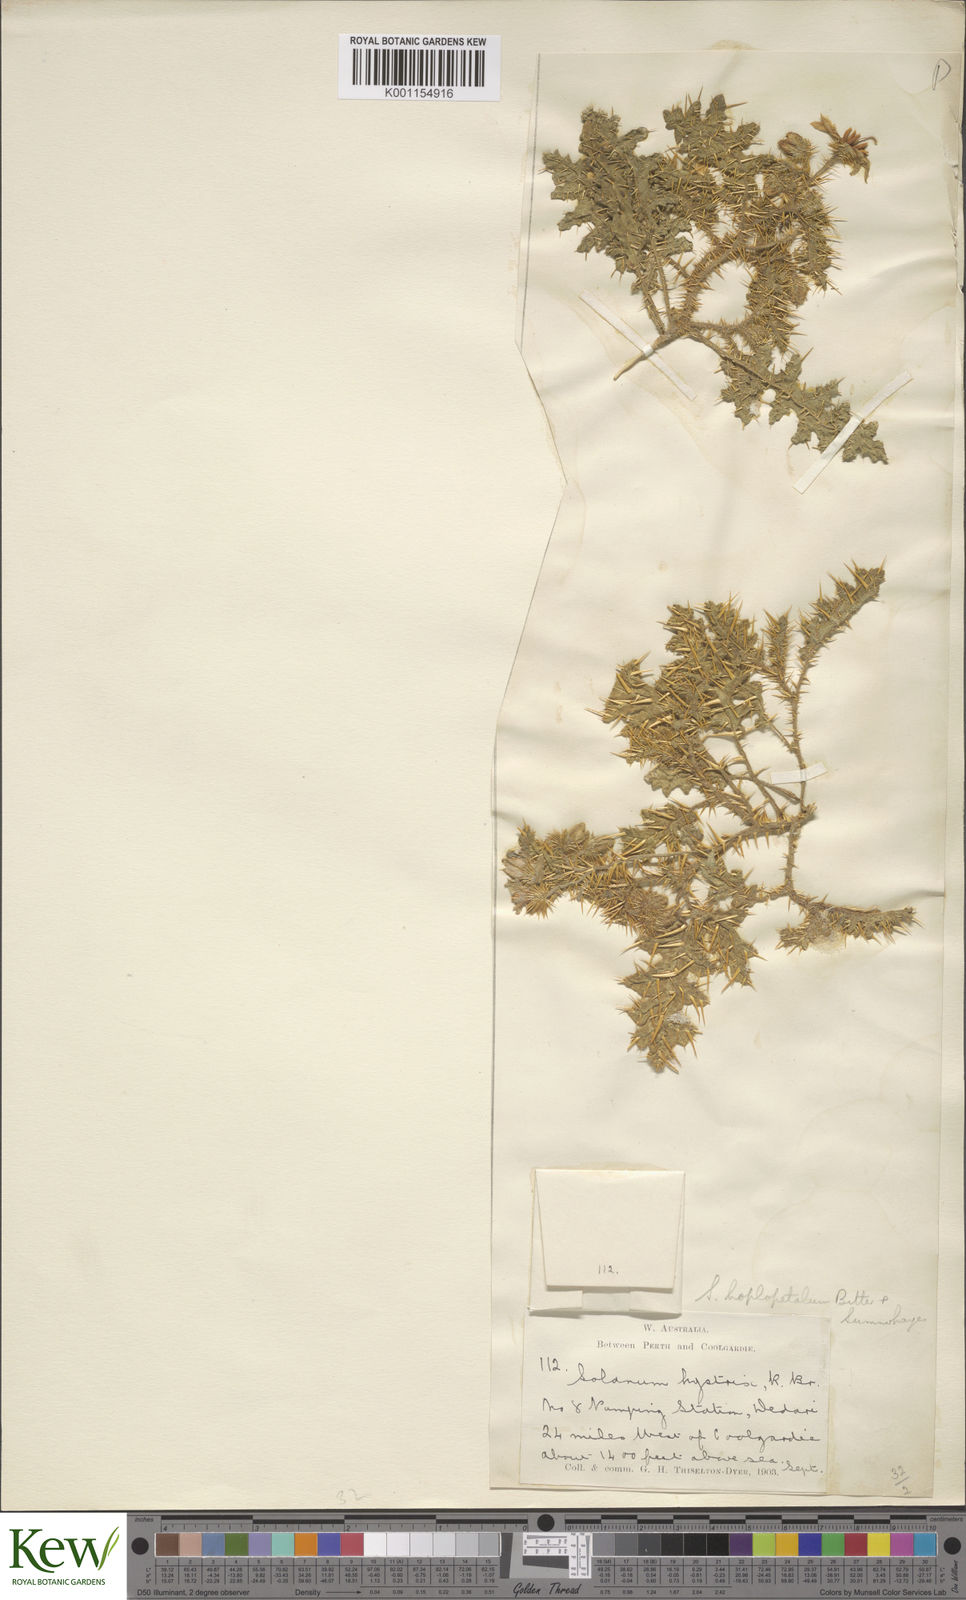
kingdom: Plantae
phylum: Tracheophyta
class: Magnoliopsida
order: Solanales
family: Solanaceae
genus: Solanum
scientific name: Solanum hoplopetalum
